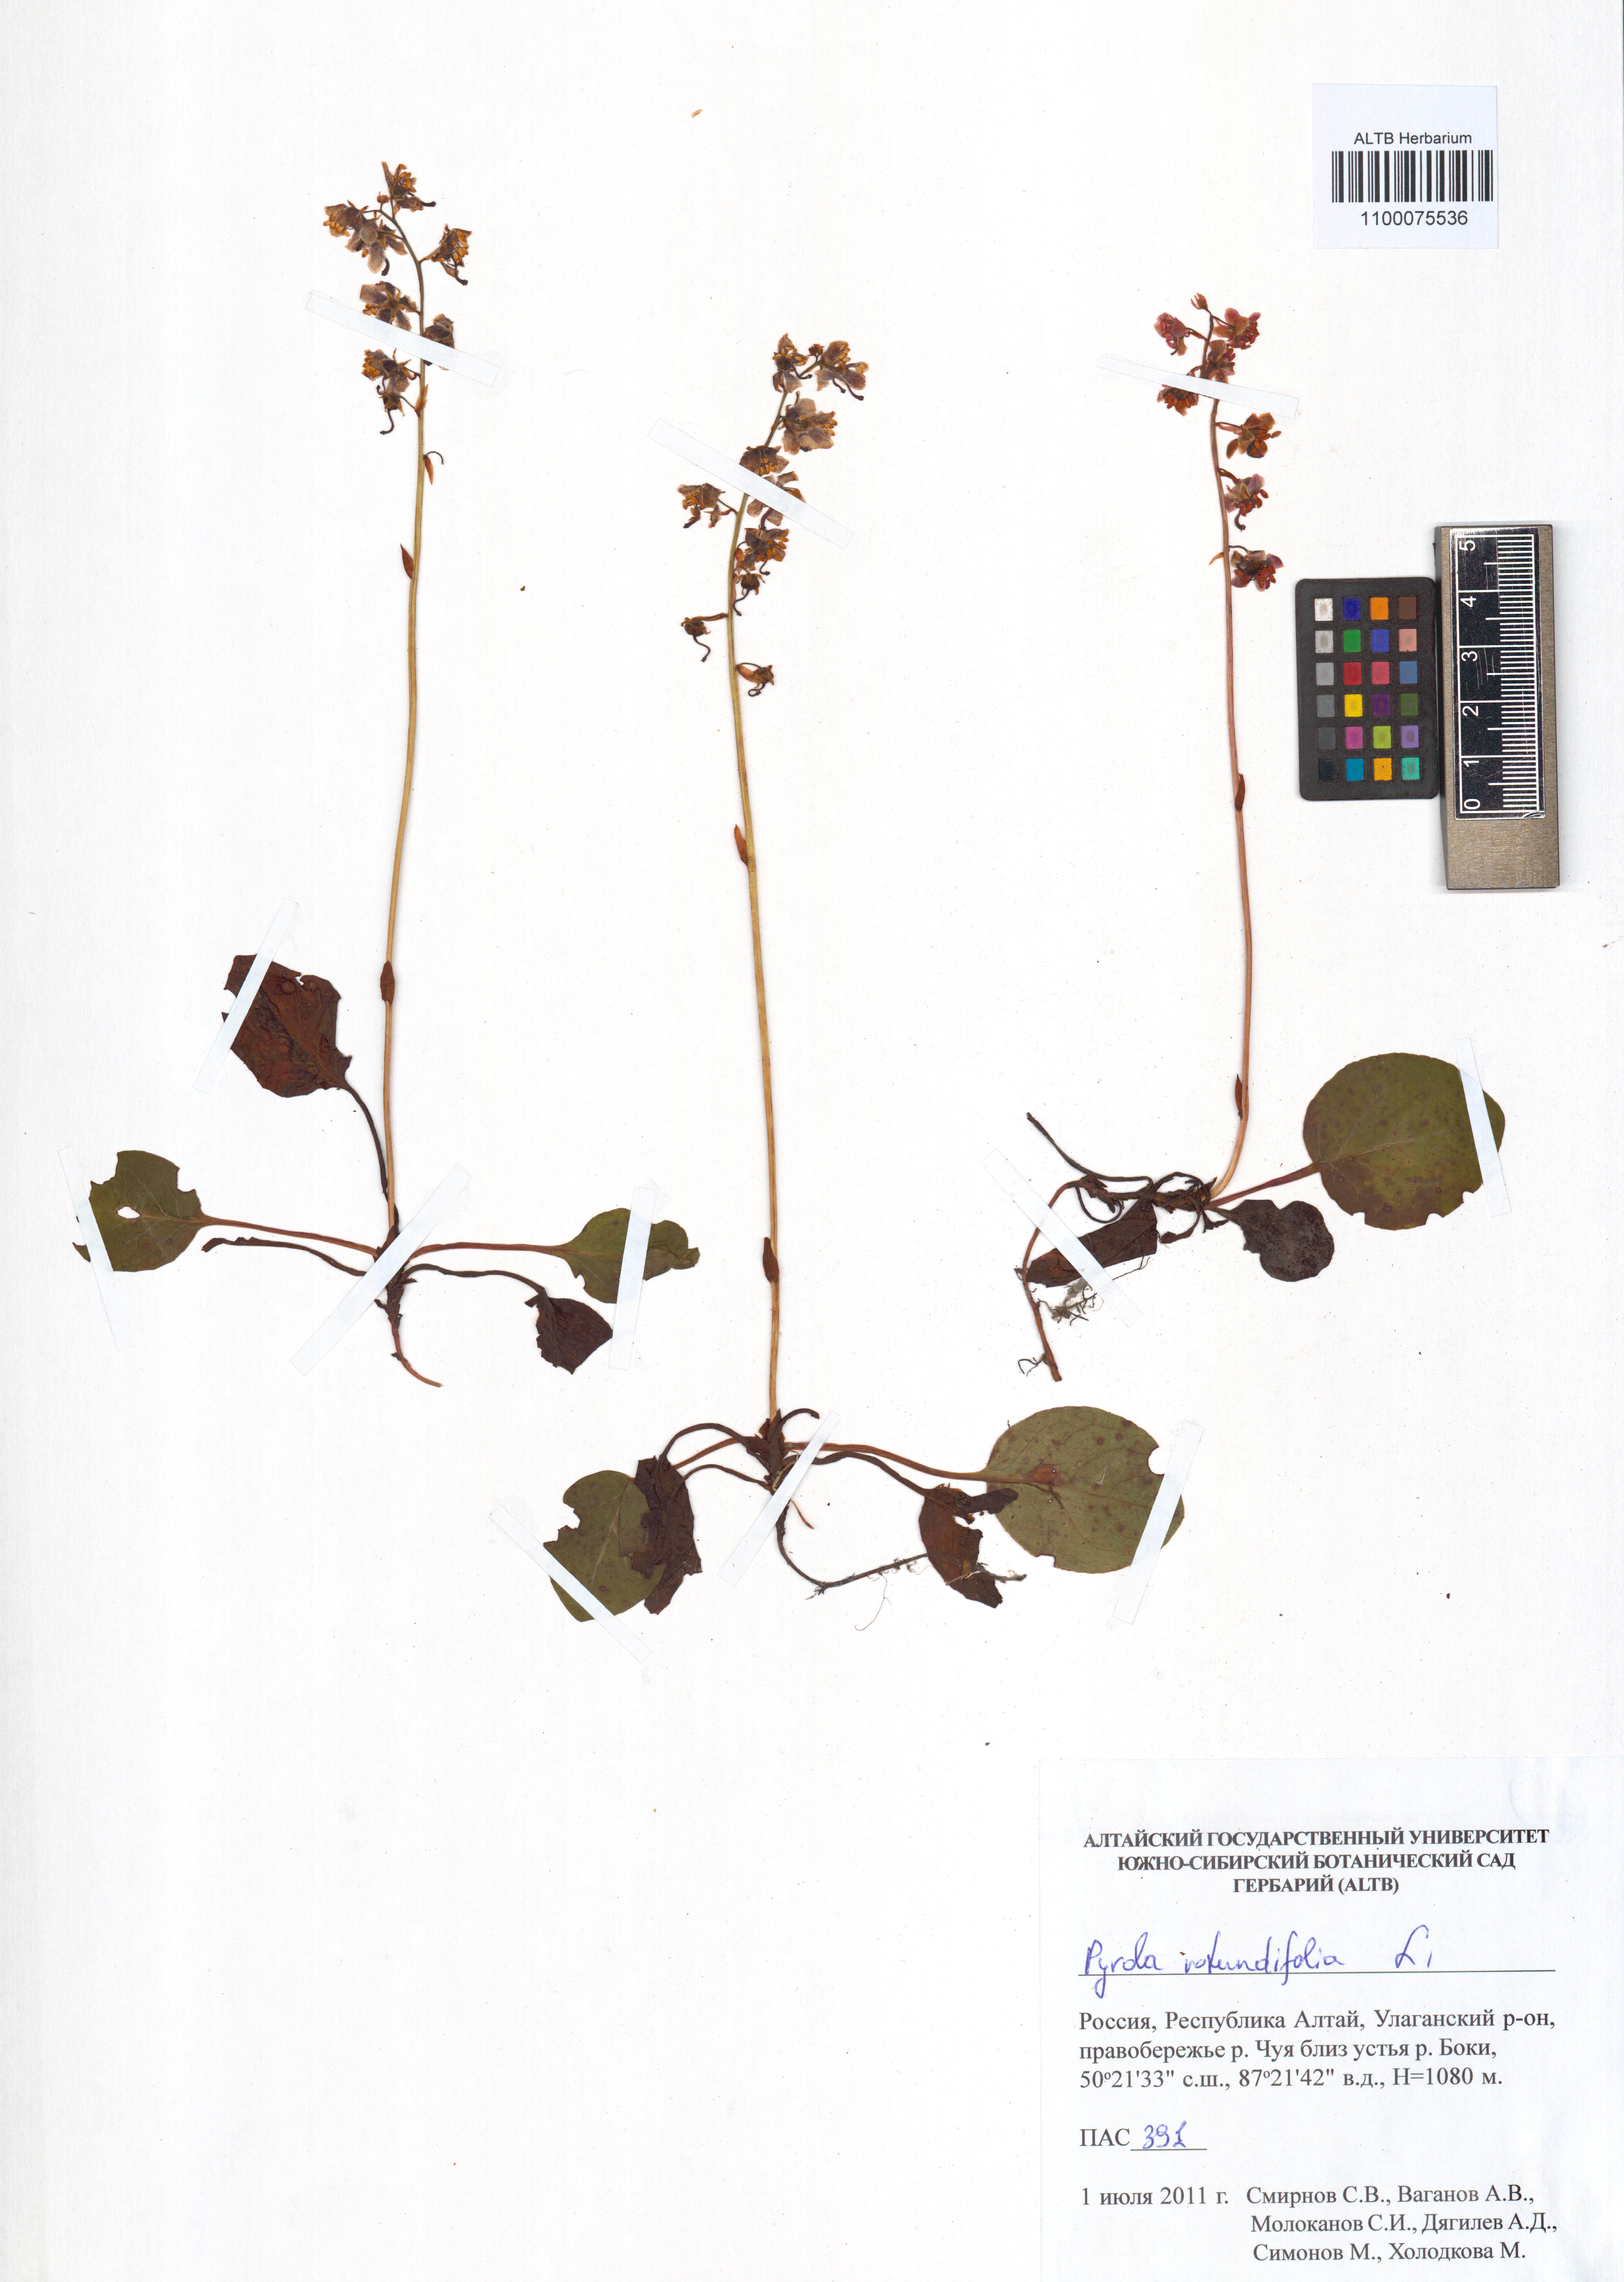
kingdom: Plantae
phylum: Tracheophyta
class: Magnoliopsida
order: Ericales
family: Ericaceae
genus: Pyrola
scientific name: Pyrola rotundifolia
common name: Round-leaved wintergreen
